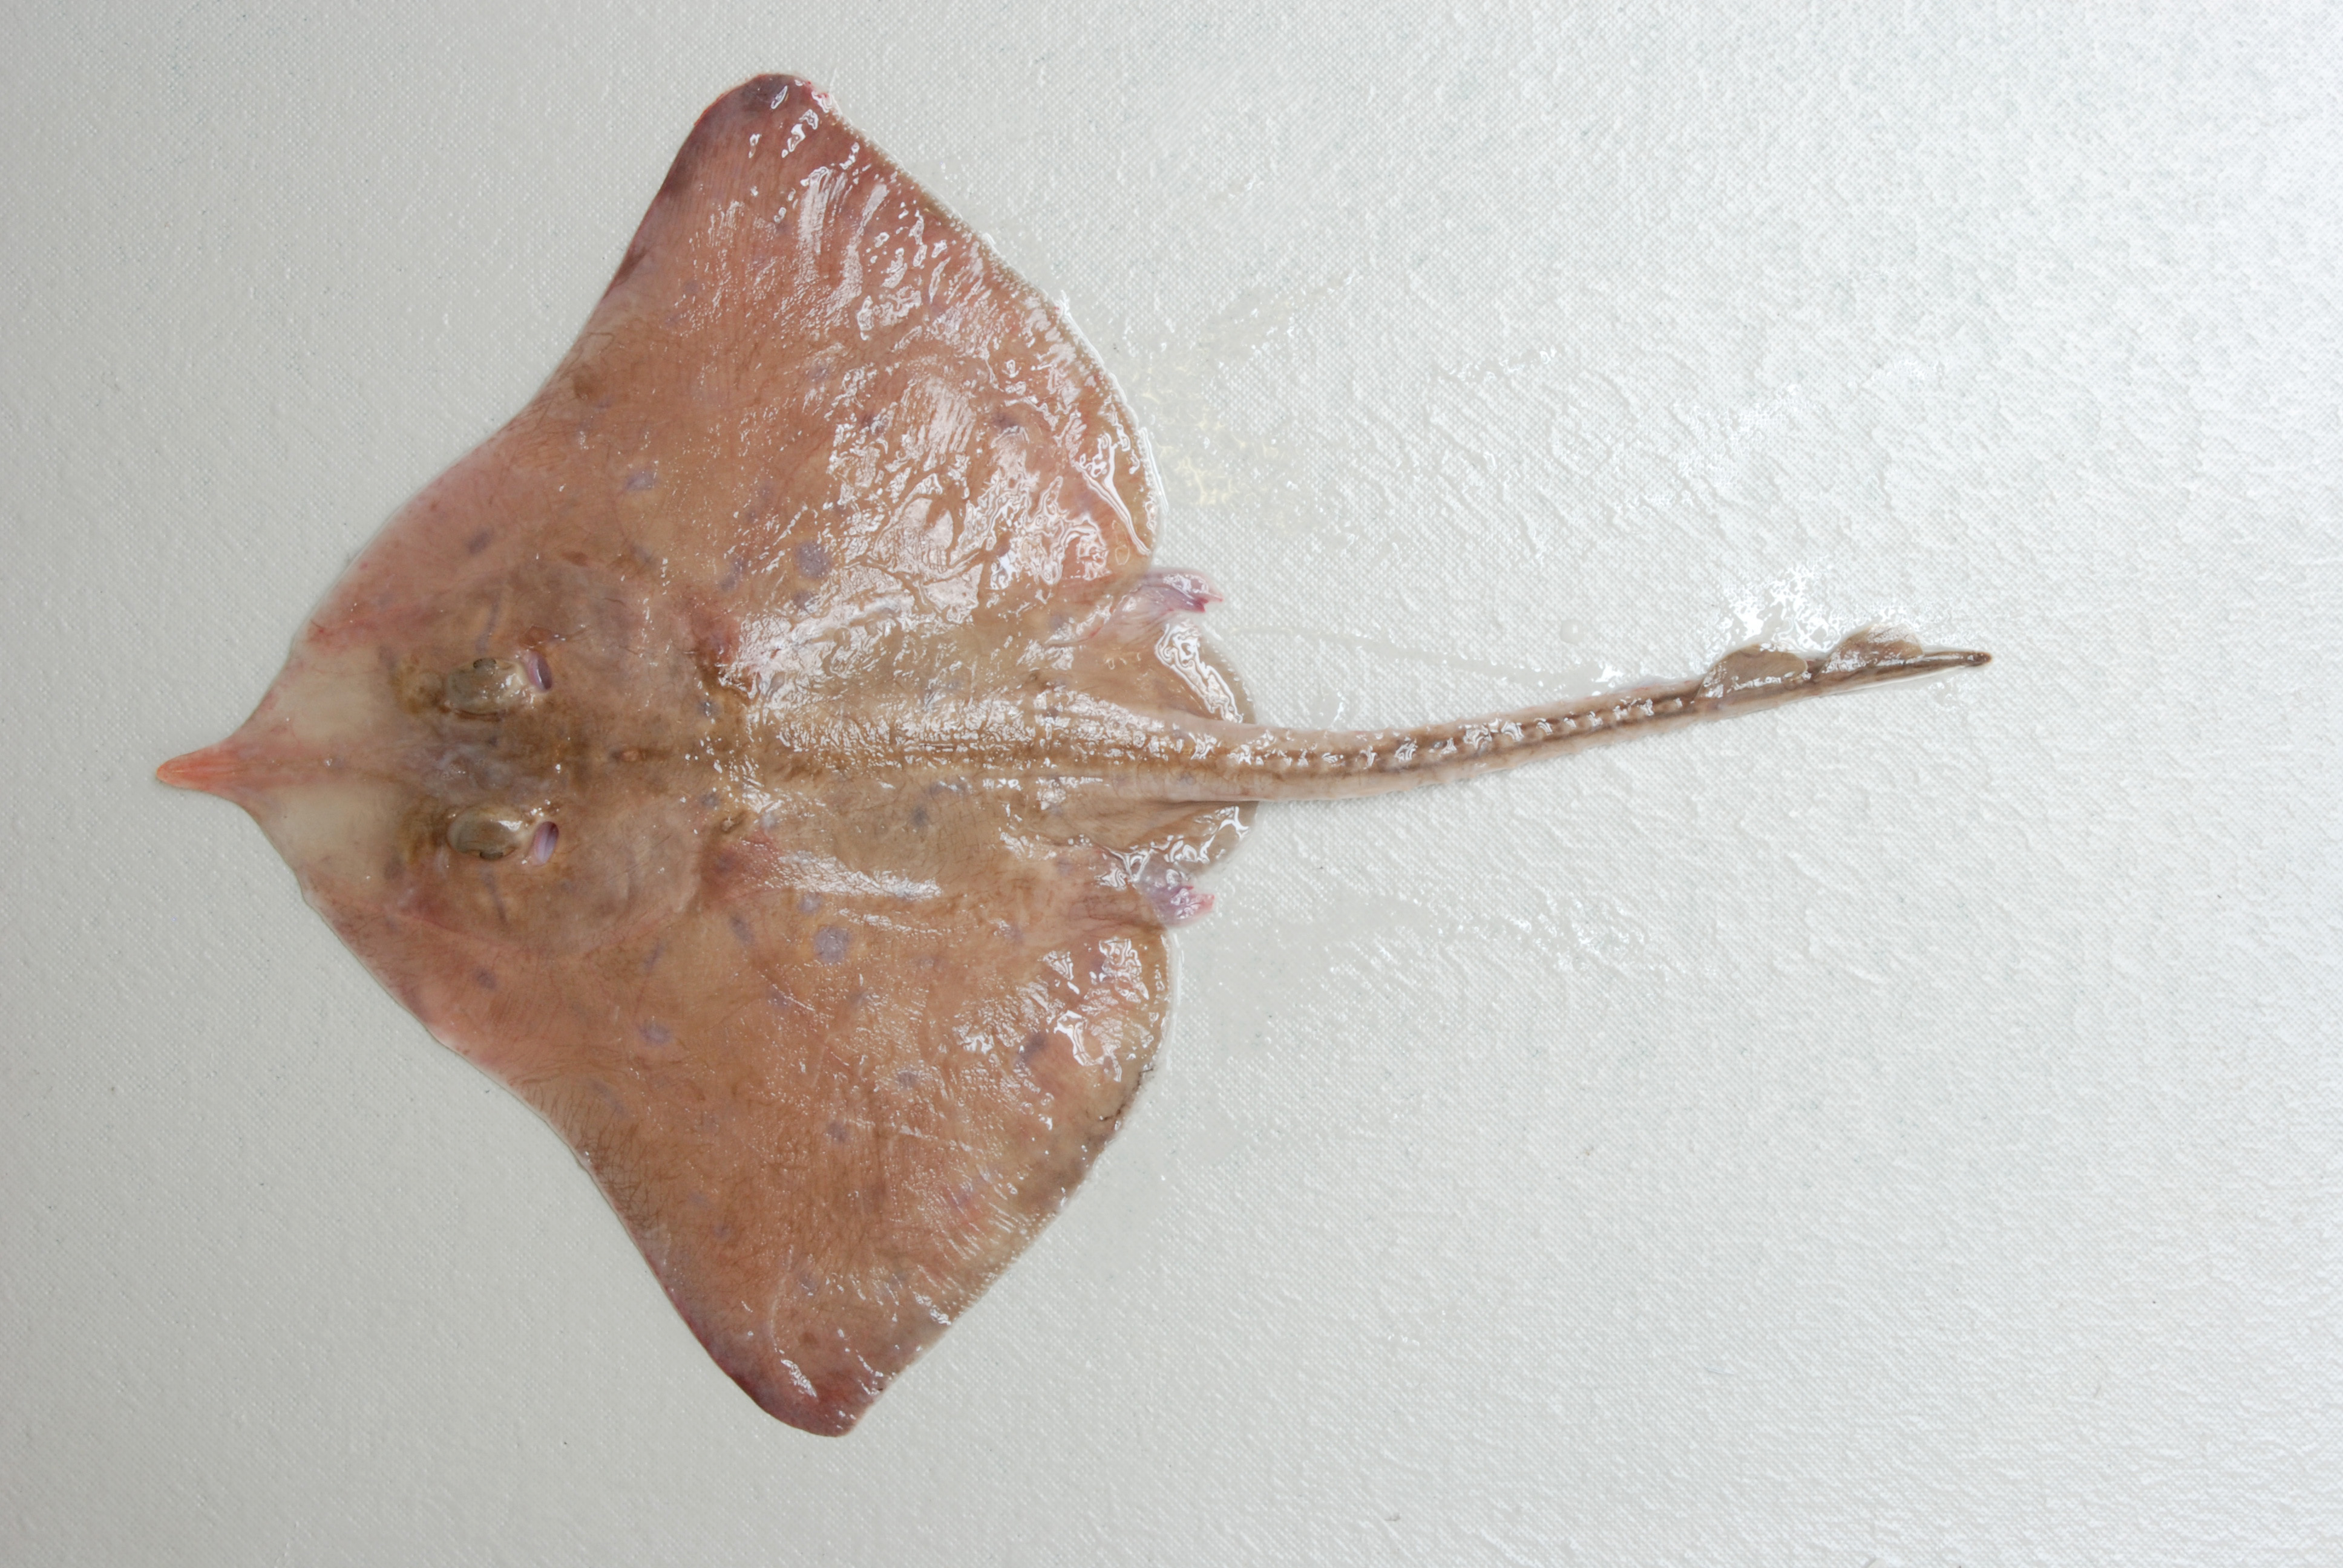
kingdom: Animalia
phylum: Chordata
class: Elasmobranchii
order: Rajiformes
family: Rajidae
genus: Rostroraja
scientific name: Rostroraja alba
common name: White skate
